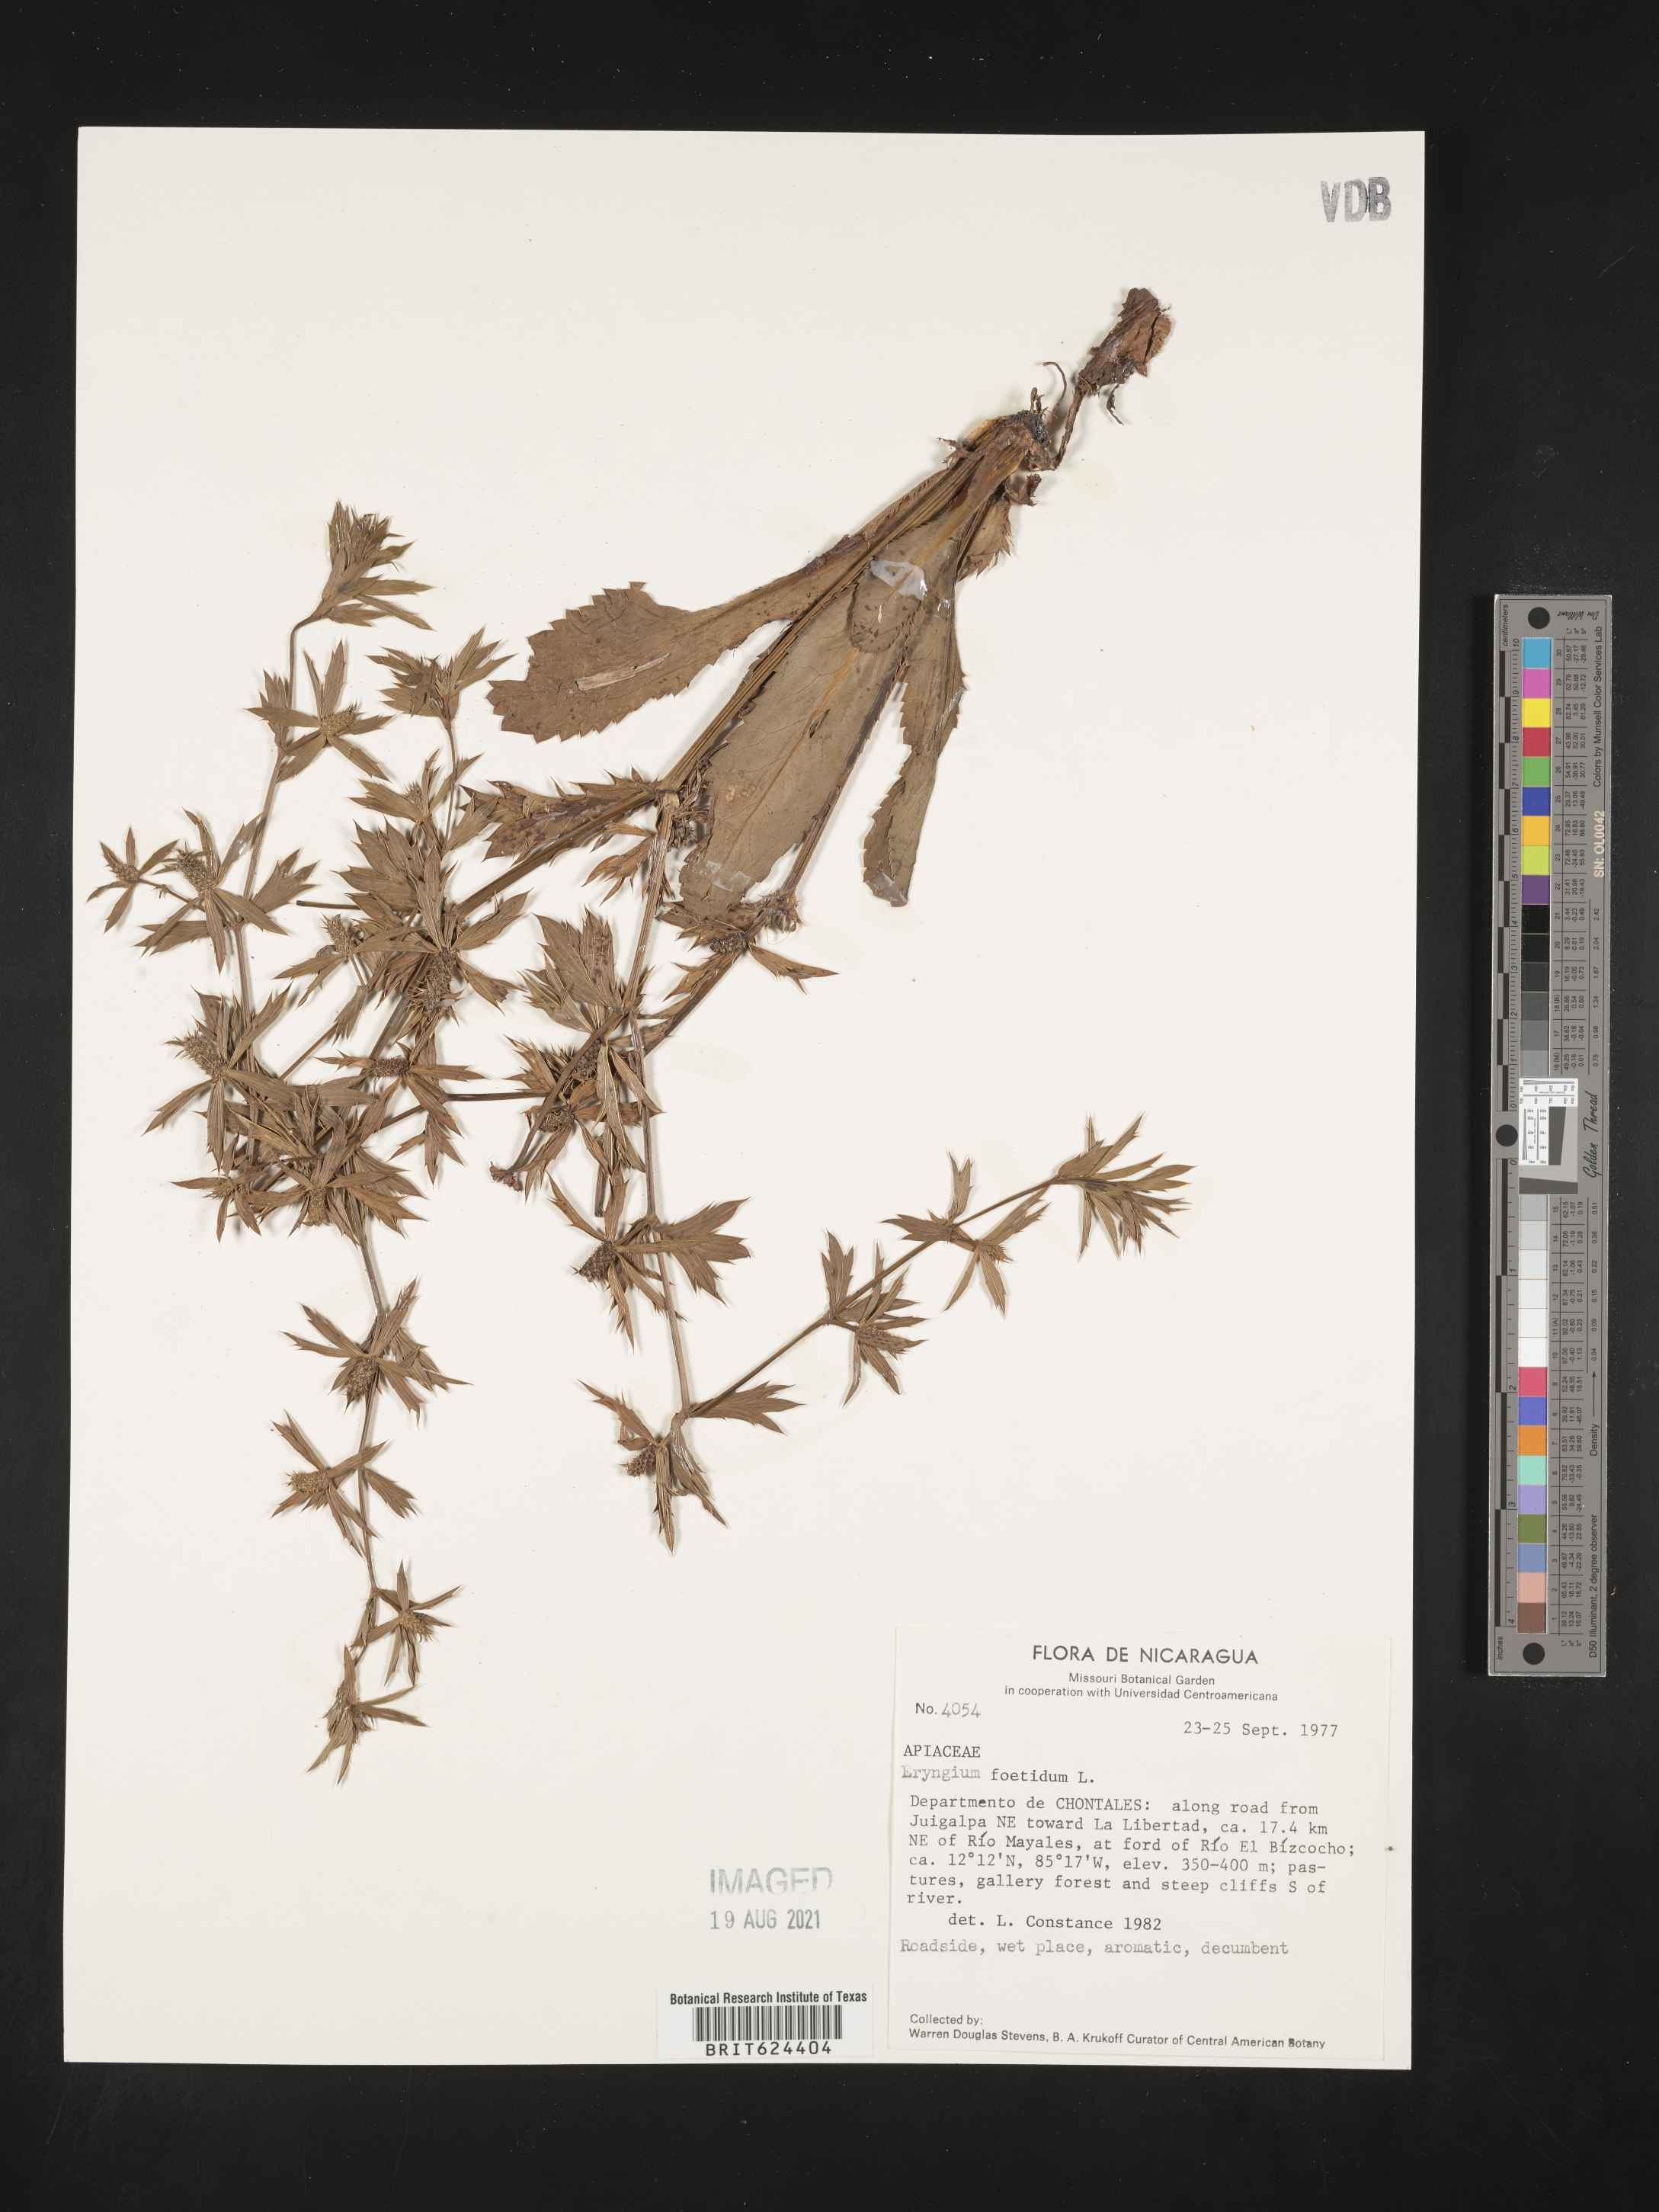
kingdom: Plantae
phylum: Tracheophyta
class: Magnoliopsida
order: Apiales
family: Apiaceae
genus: Eryngium
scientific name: Eryngium foetidum
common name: Fitweed
